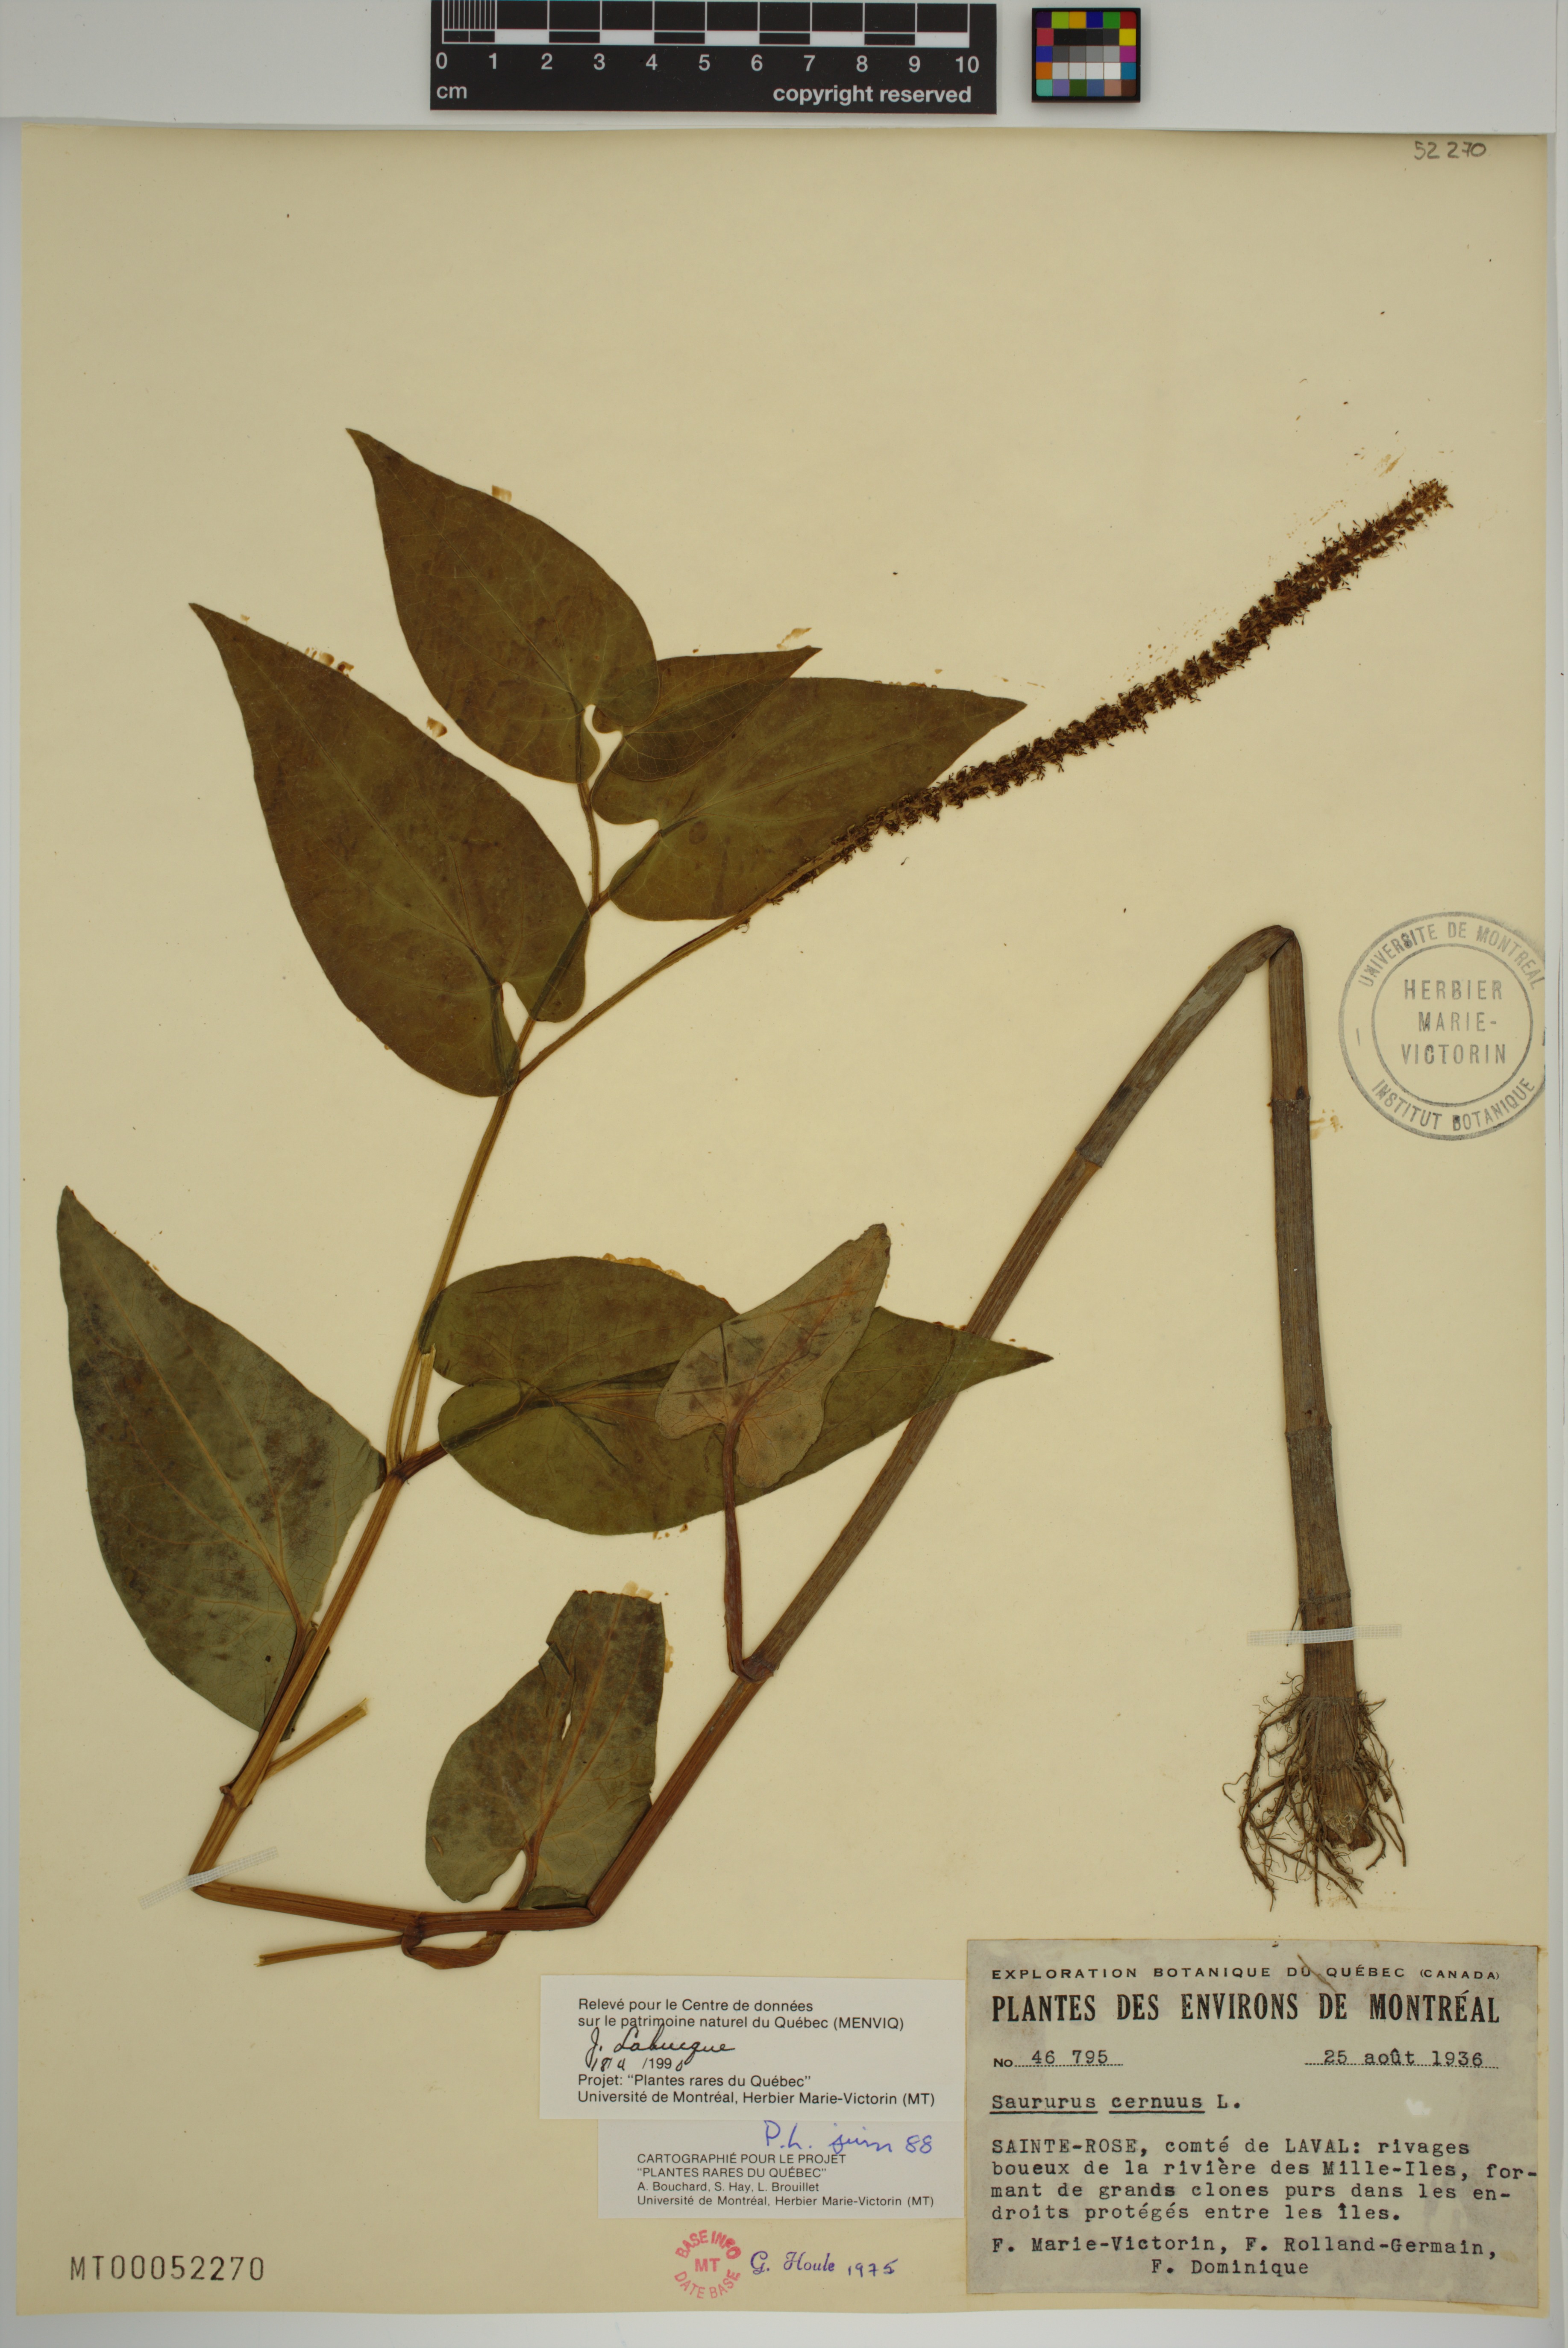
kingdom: Plantae
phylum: Tracheophyta
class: Magnoliopsida
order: Piperales
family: Saururaceae
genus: Saururus
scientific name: Saururus cernuus
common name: Lizard's-tail
